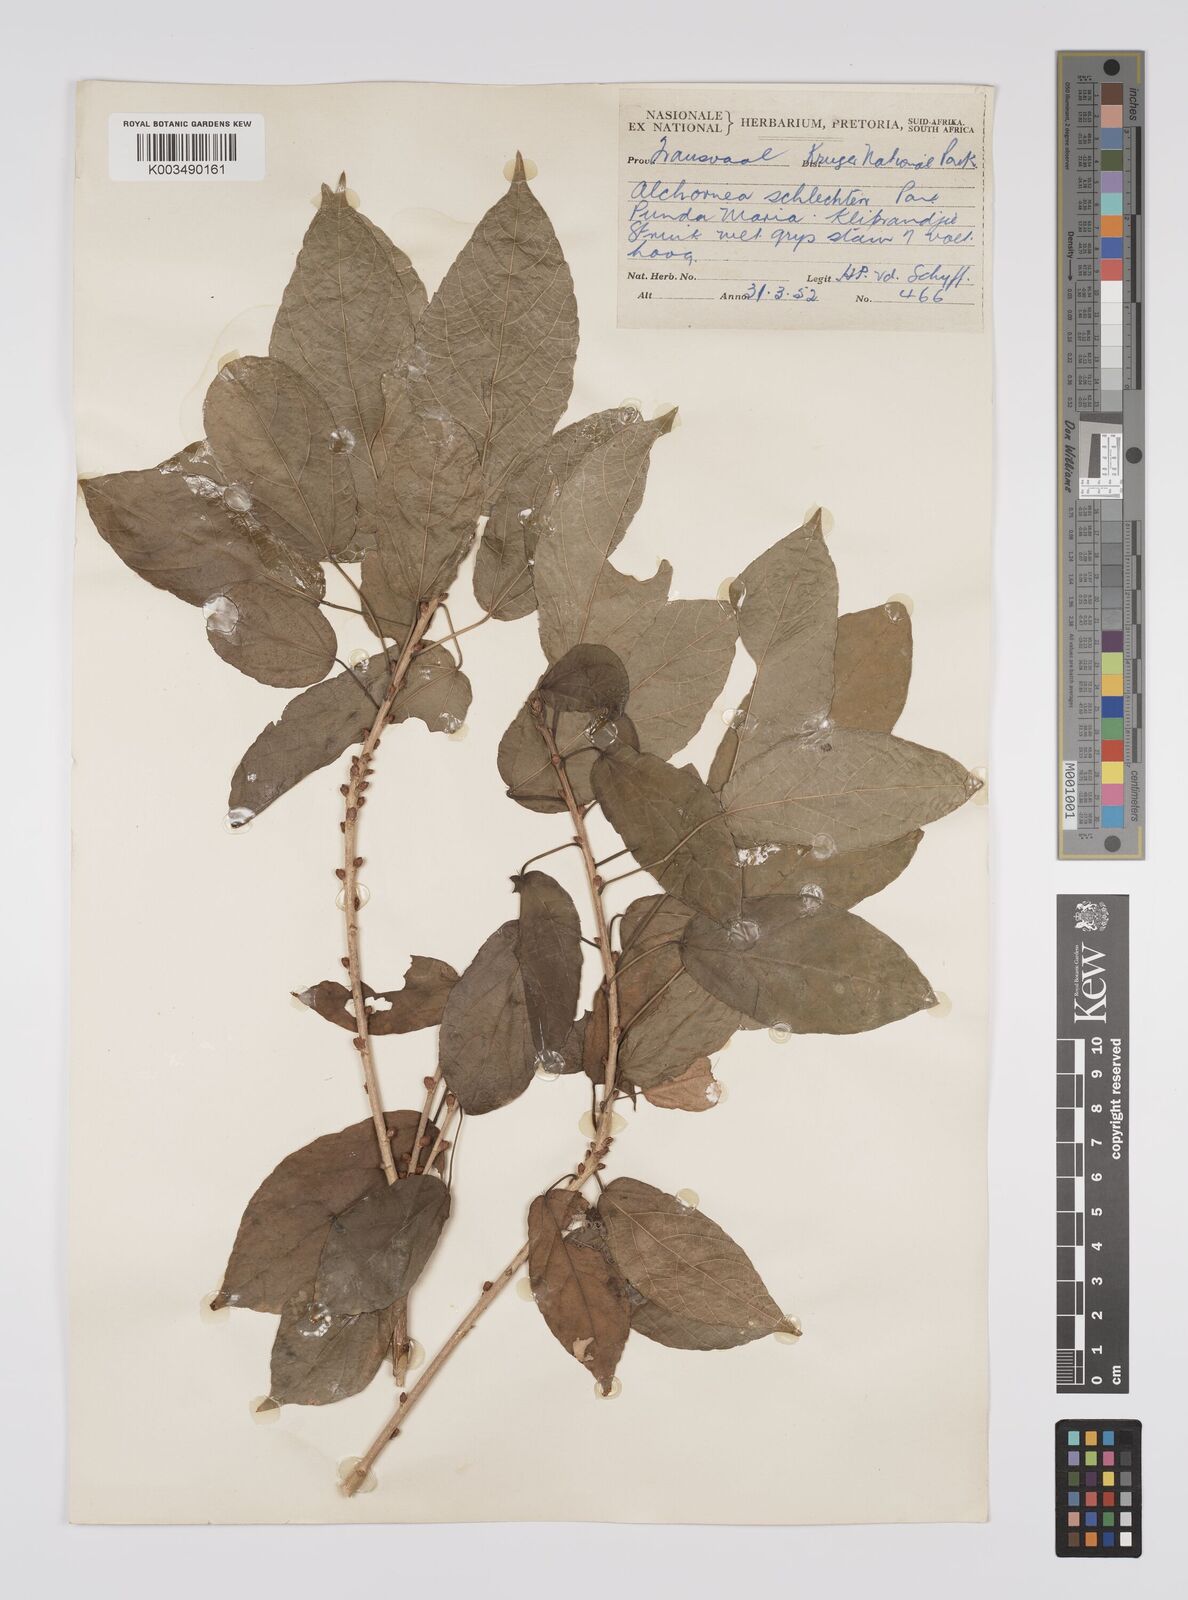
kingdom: Plantae
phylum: Tracheophyta
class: Magnoliopsida
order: Malpighiales
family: Euphorbiaceae
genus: Alchornea
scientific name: Alchornea laxiflora
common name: Lowveld bead-string
